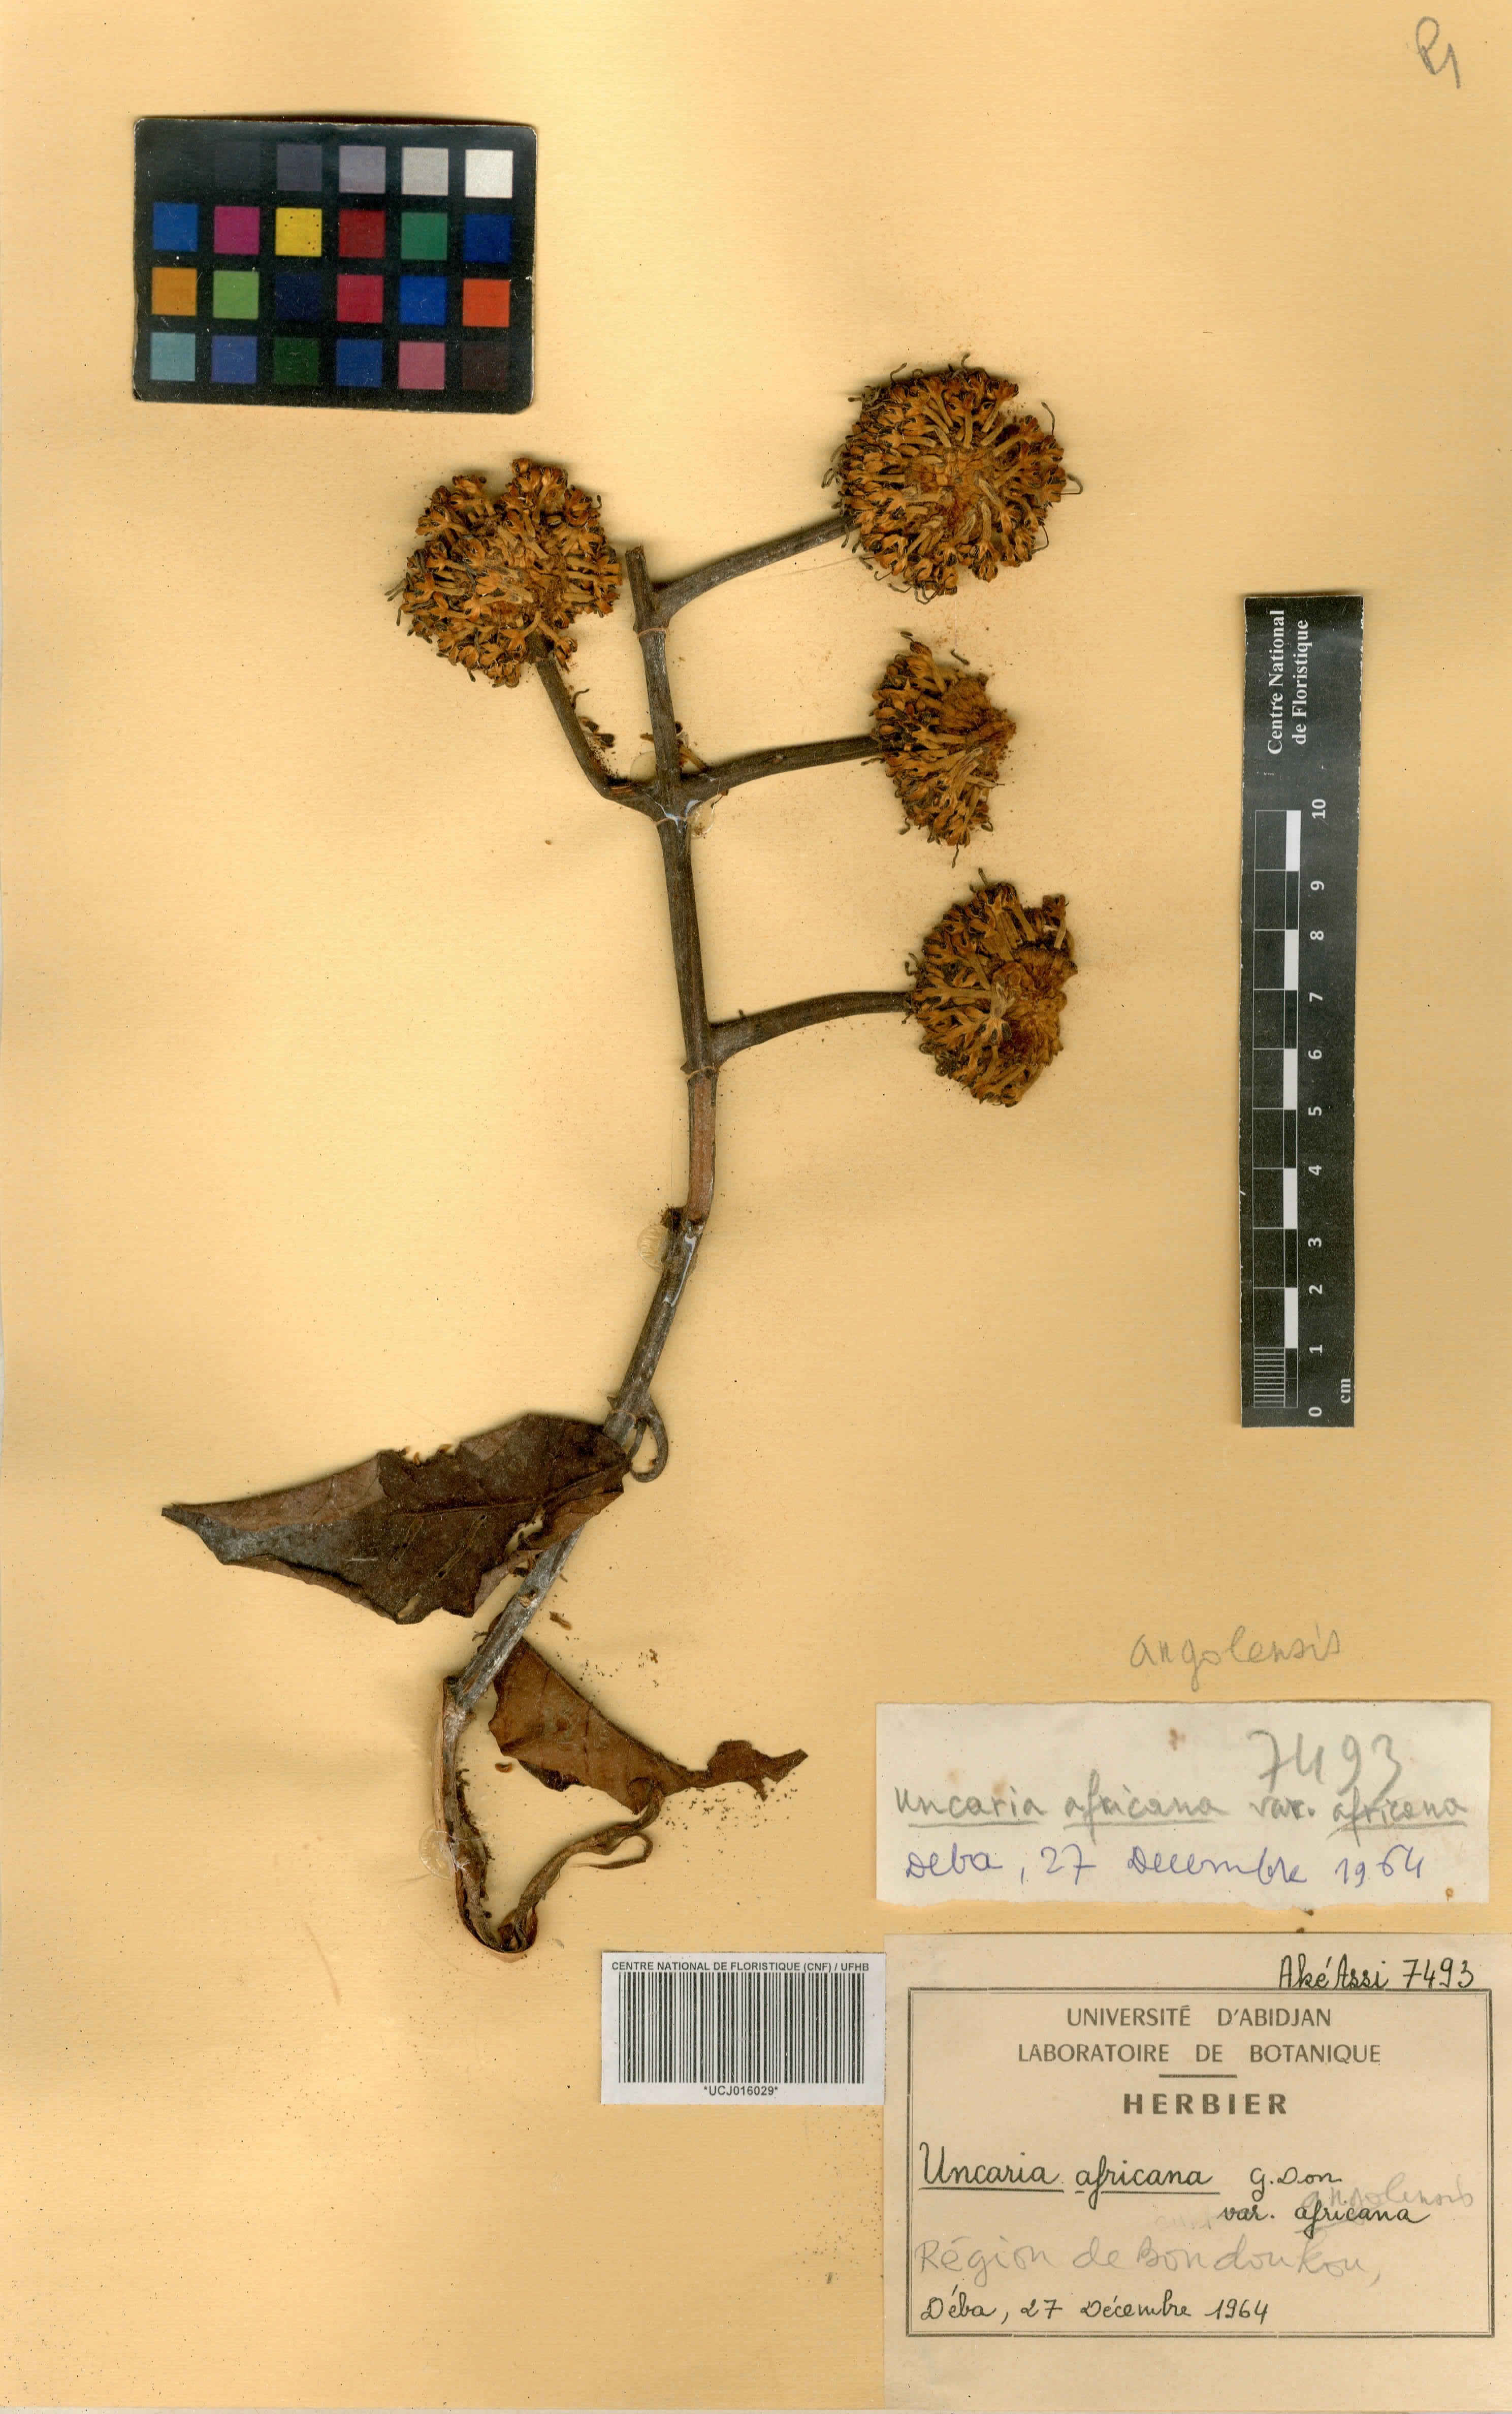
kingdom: Plantae
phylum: Tracheophyta
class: Magnoliopsida
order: Gentianales
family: Rubiaceae
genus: Uncaria
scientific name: Uncaria angolensis
